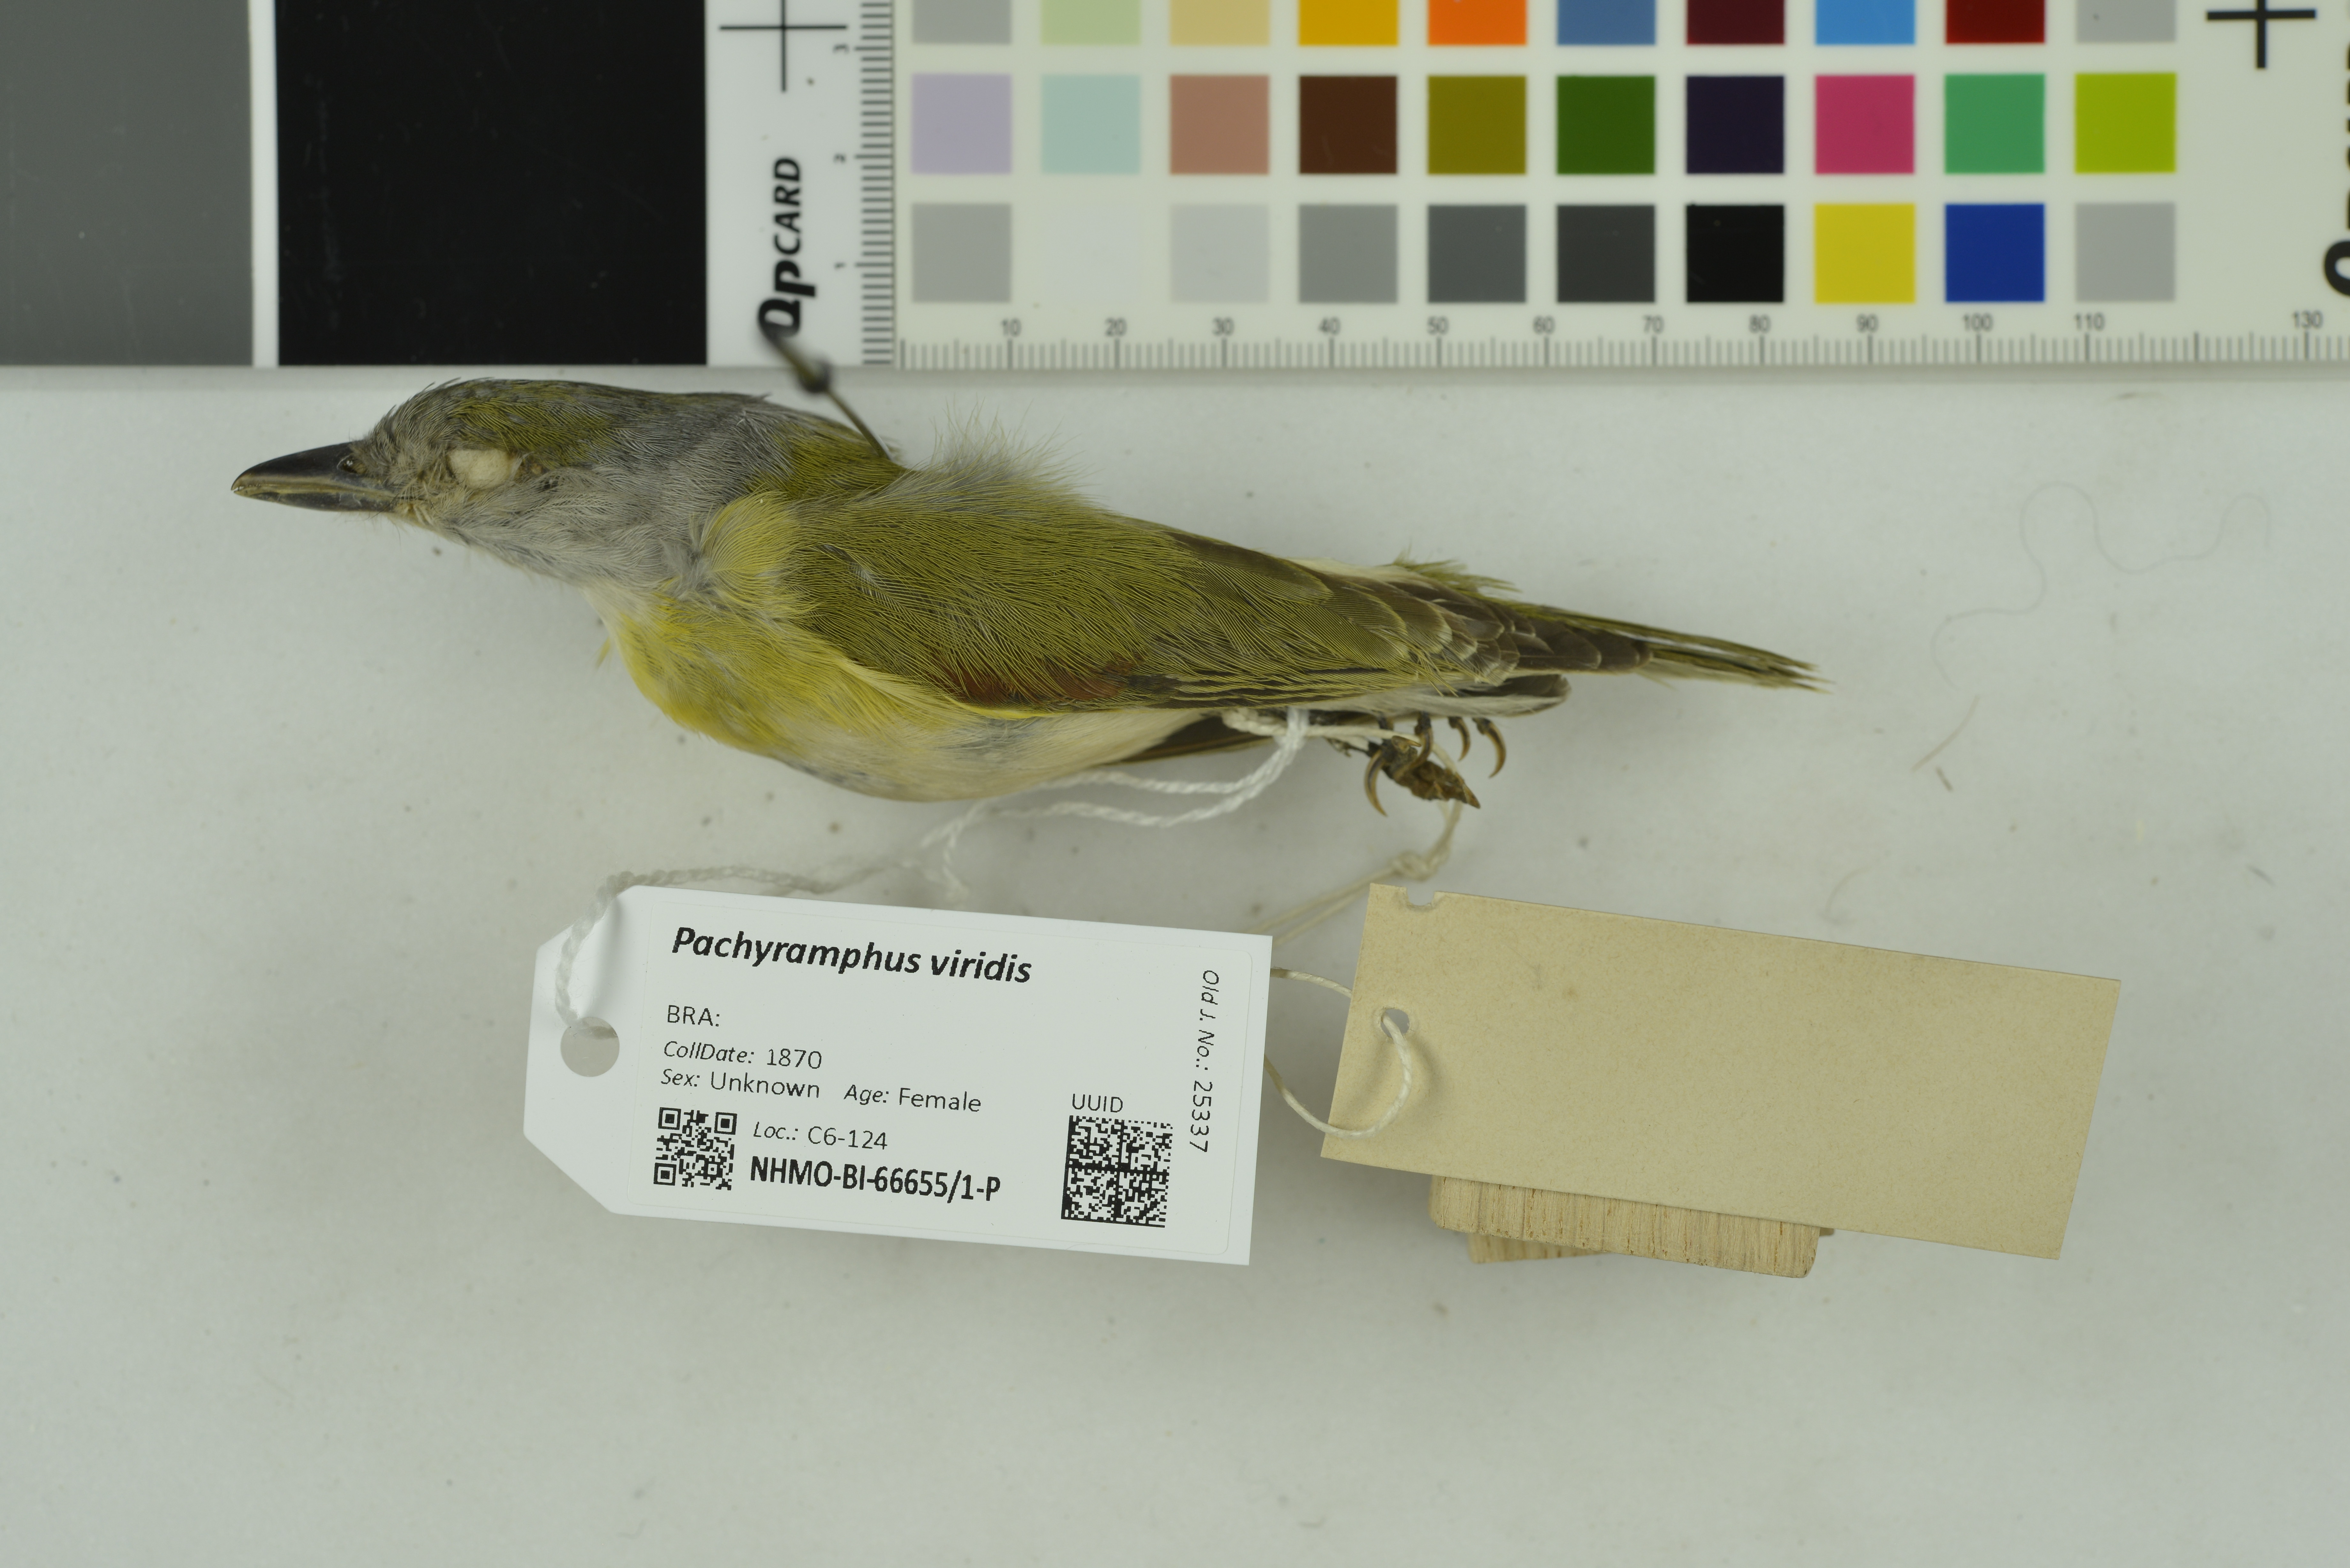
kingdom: Animalia
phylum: Chordata
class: Aves
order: Passeriformes
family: Cotingidae
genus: Pachyramphus
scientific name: Pachyramphus viridis
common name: Green-backed becard
